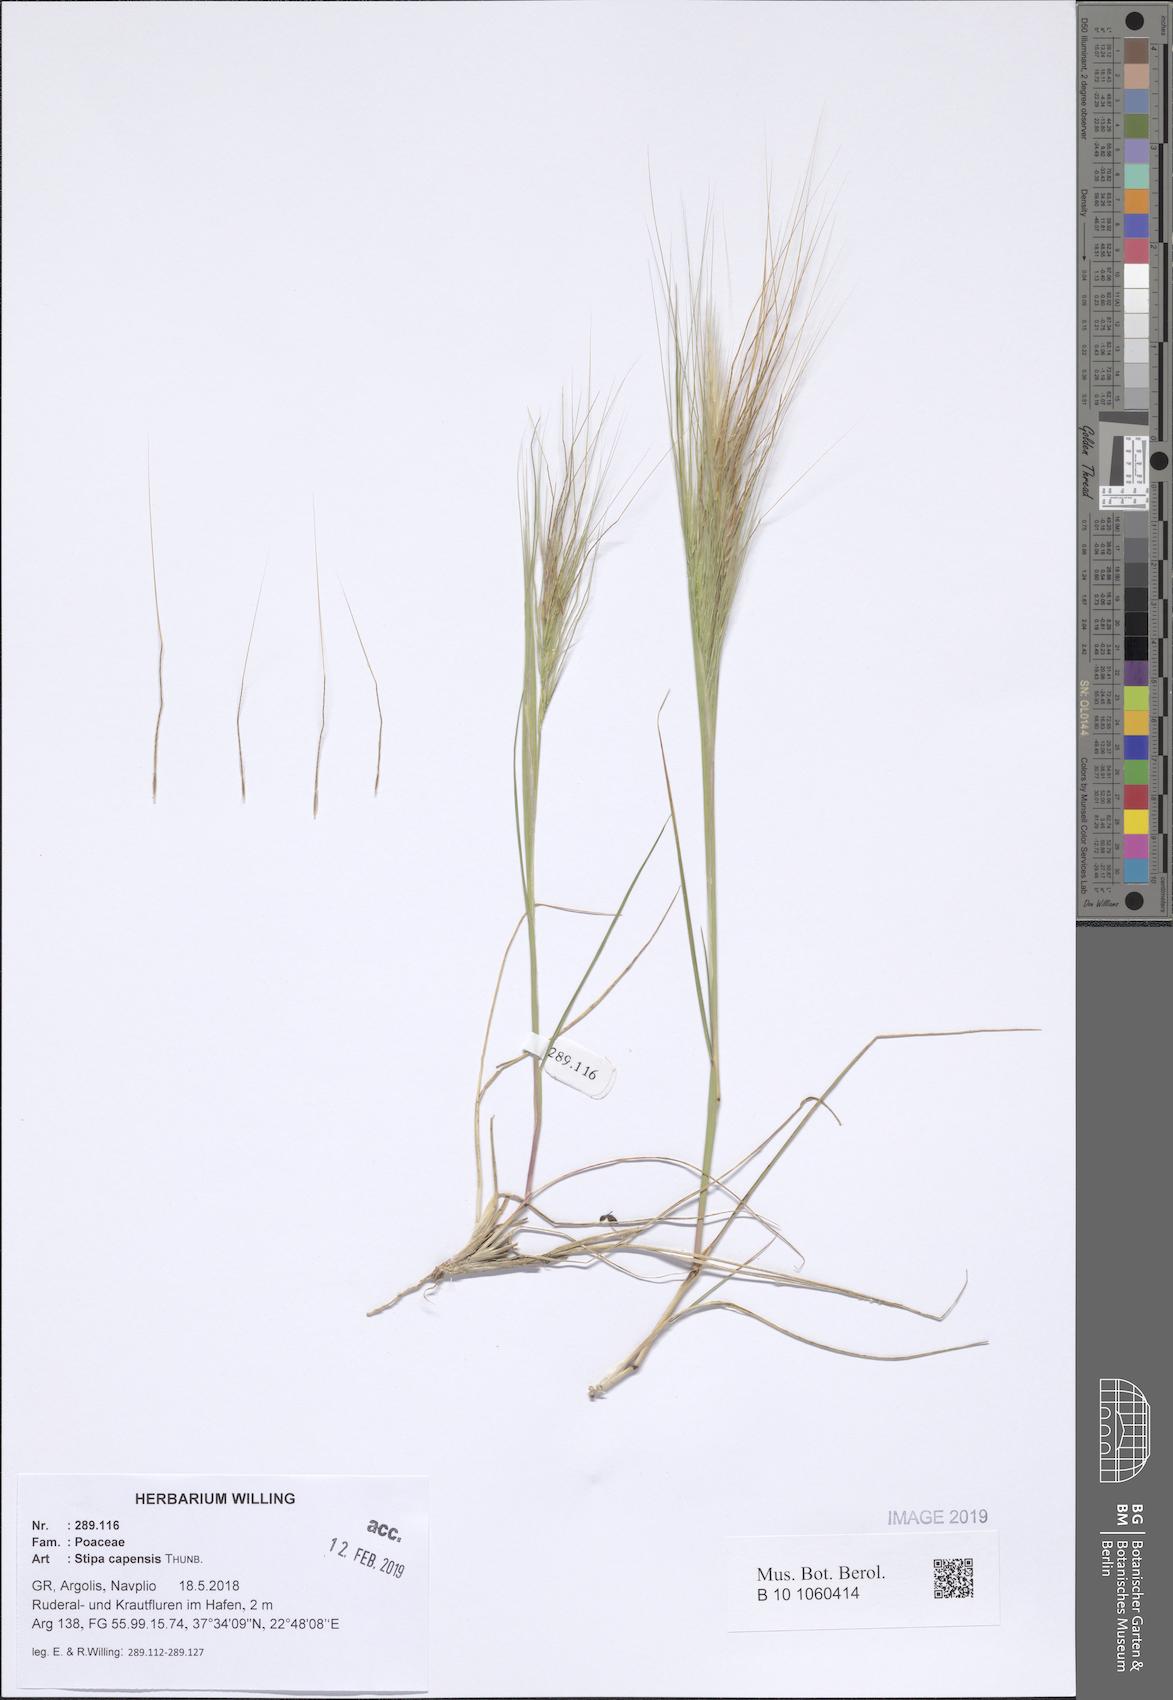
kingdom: Plantae
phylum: Tracheophyta
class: Liliopsida
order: Poales
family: Poaceae
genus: Stipellula
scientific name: Stipellula capensis
